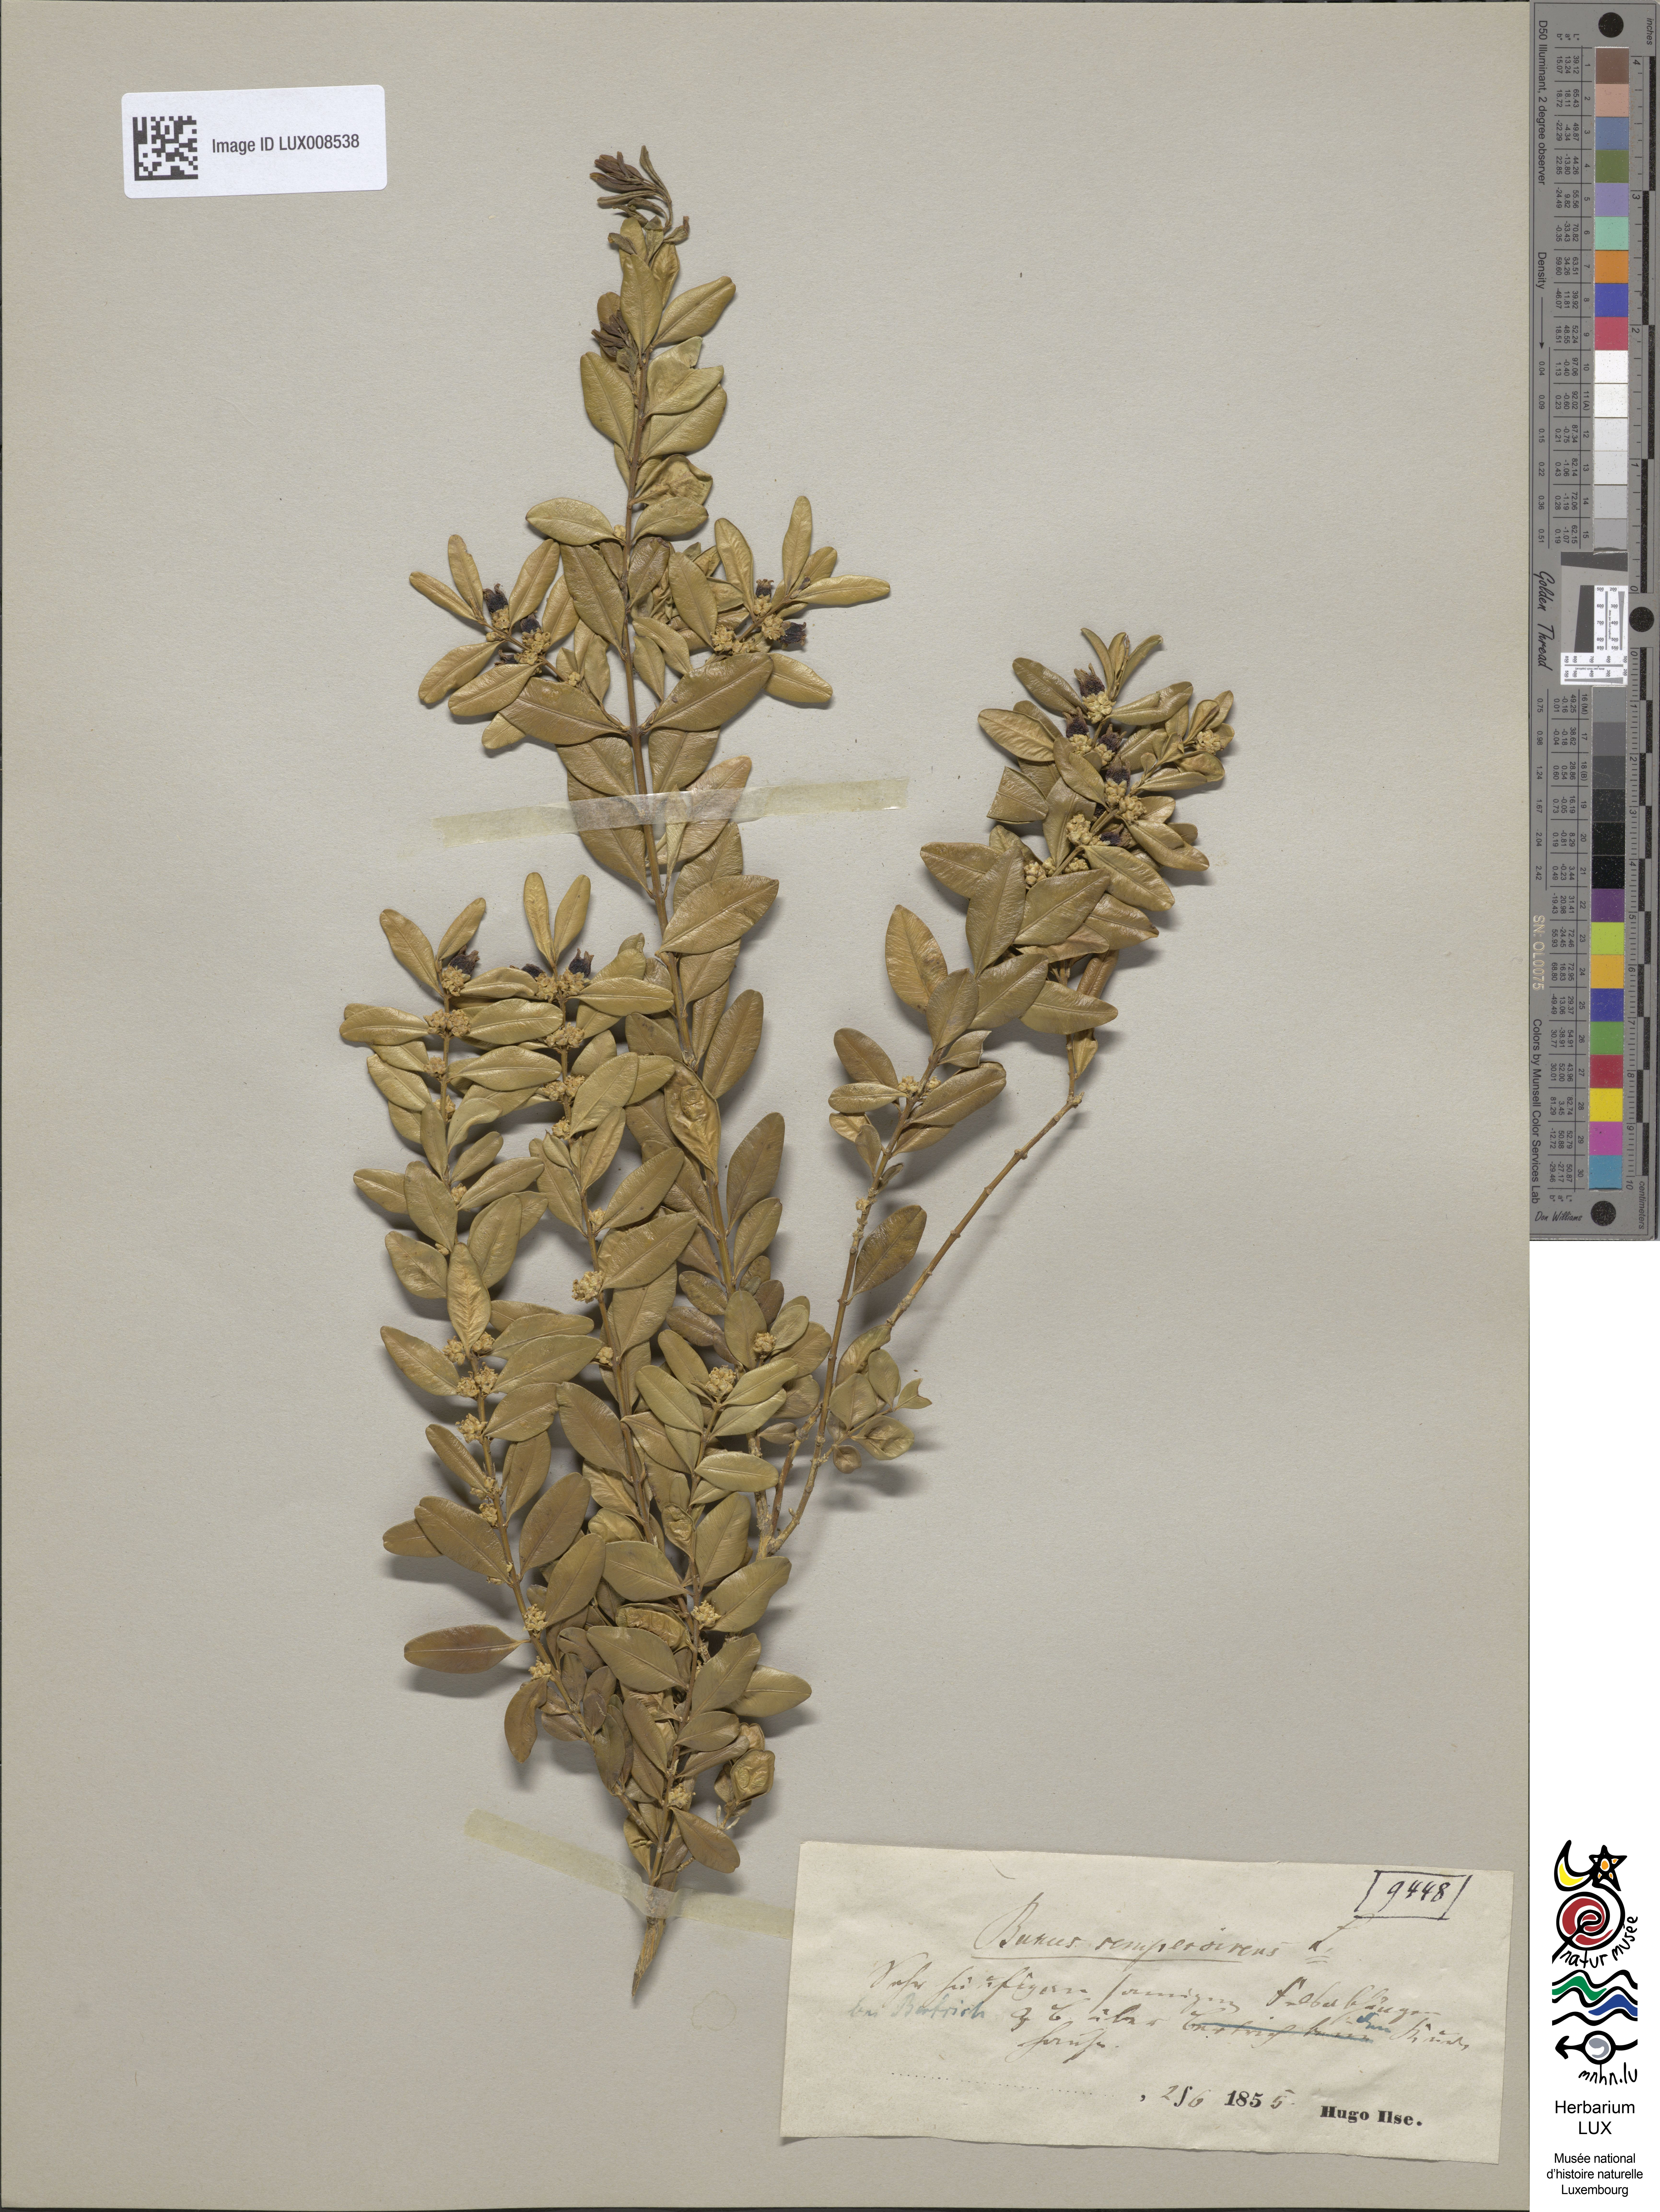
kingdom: Plantae
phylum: Tracheophyta
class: Magnoliopsida
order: Buxales
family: Buxaceae
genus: Buxus
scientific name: Buxus sempervirens
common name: Box
